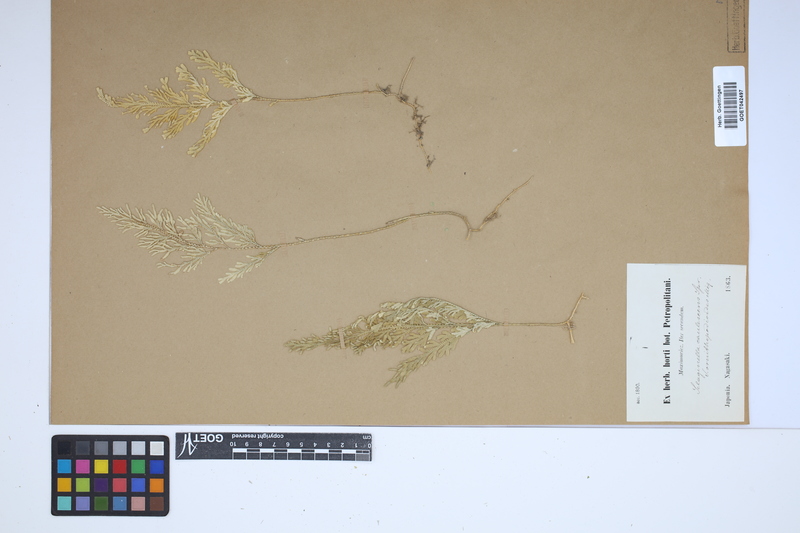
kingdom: Plantae
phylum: Tracheophyta
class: Lycopodiopsida
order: Selaginellales
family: Selaginellaceae
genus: Selaginella
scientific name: Selaginella involvens
